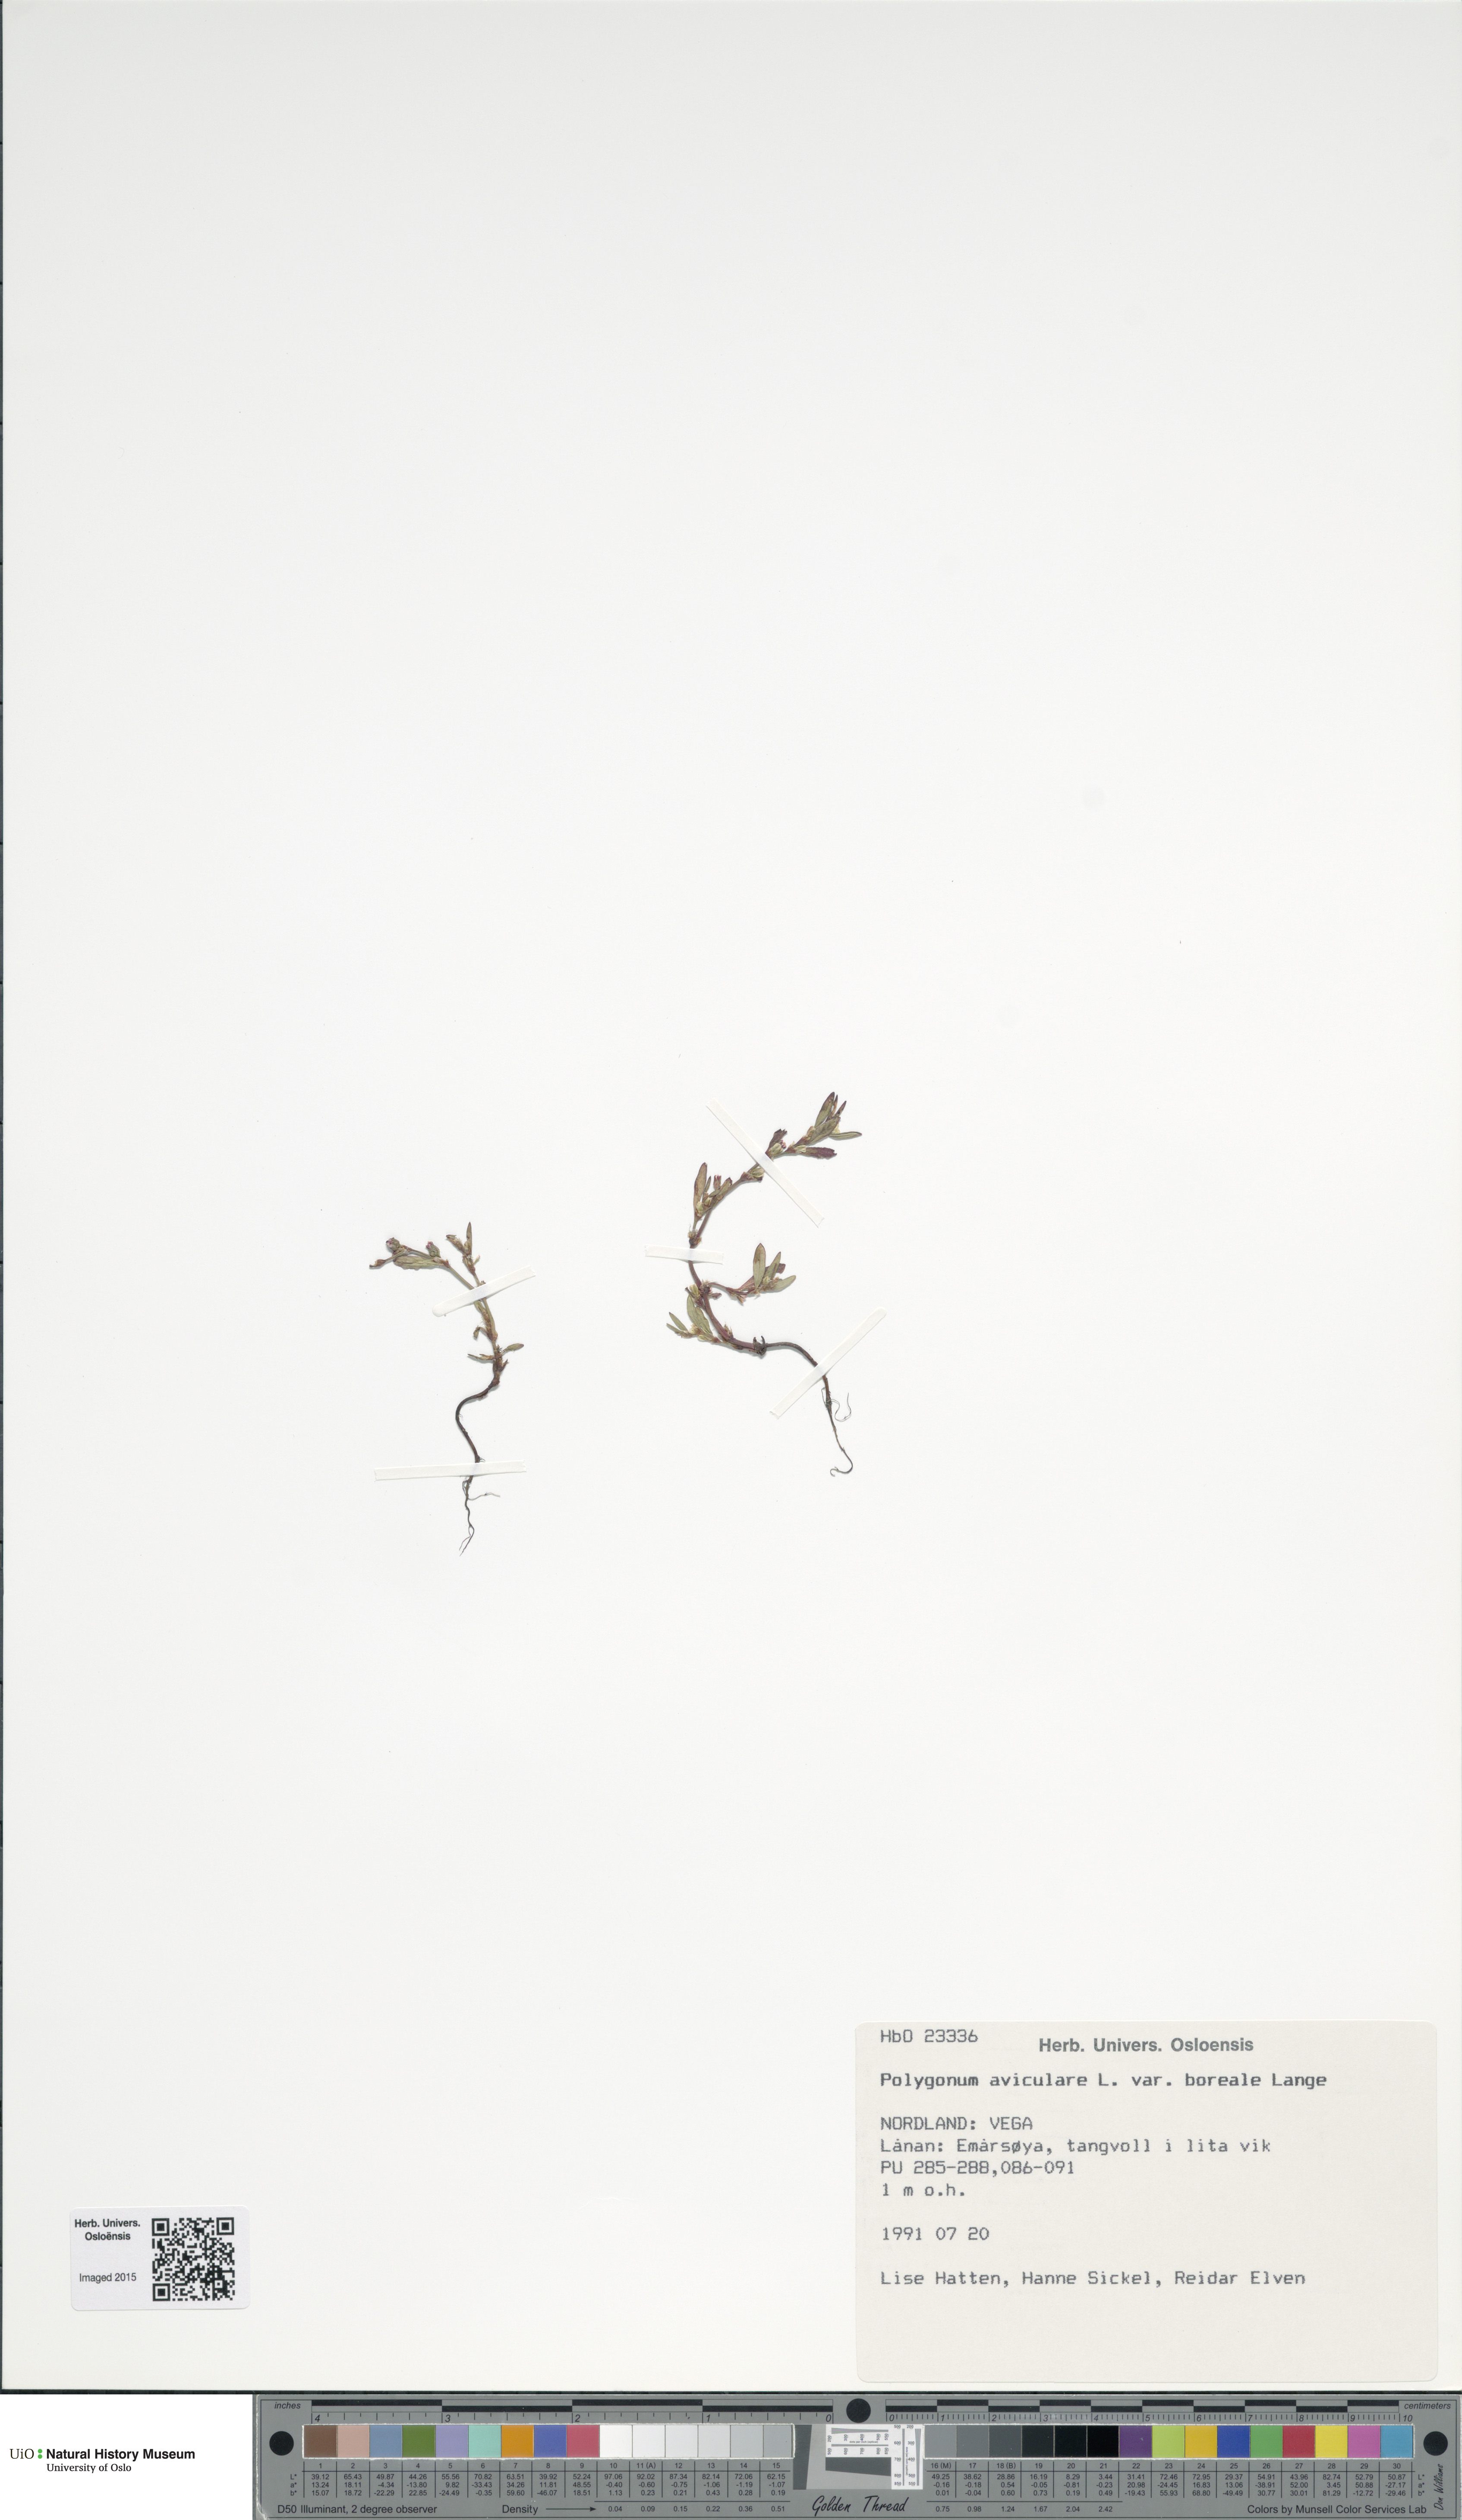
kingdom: Plantae
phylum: Tracheophyta
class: Magnoliopsida
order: Caryophyllales
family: Polygonaceae
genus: Polygonum
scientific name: Polygonum boreale
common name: Northern knotgrass
